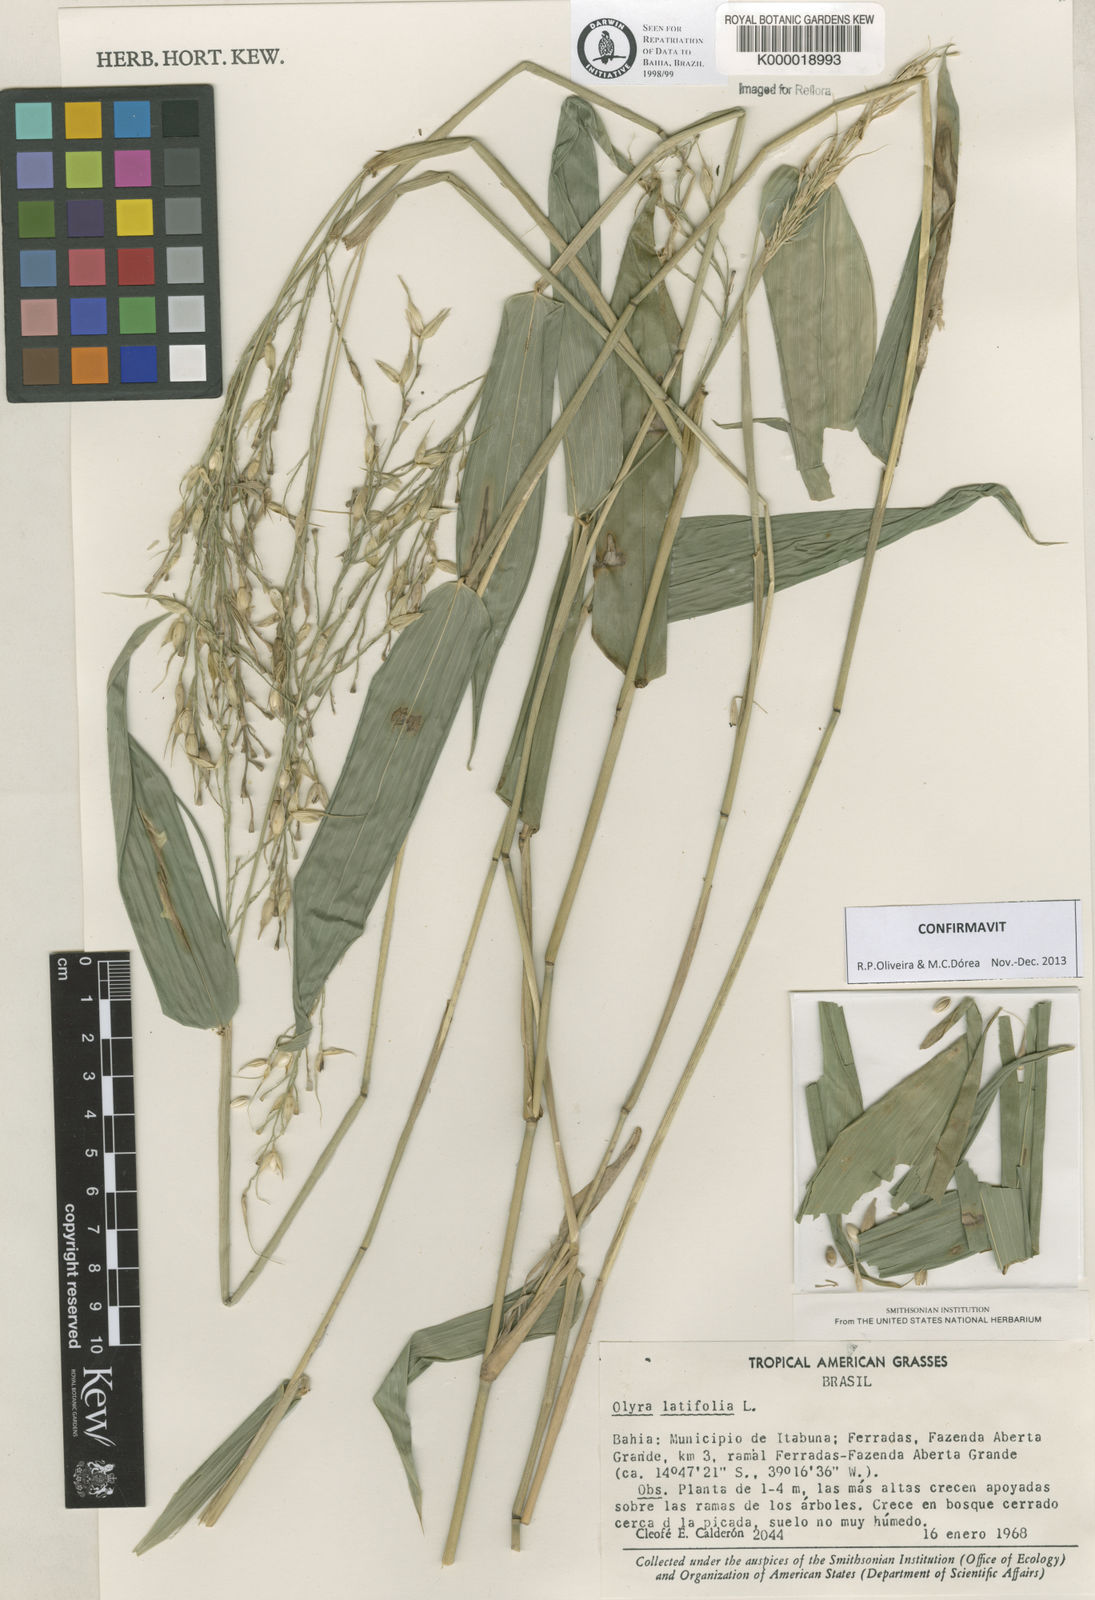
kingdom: Plantae
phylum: Tracheophyta
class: Liliopsida
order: Poales
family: Poaceae
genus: Olyra
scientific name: Olyra latifolia
